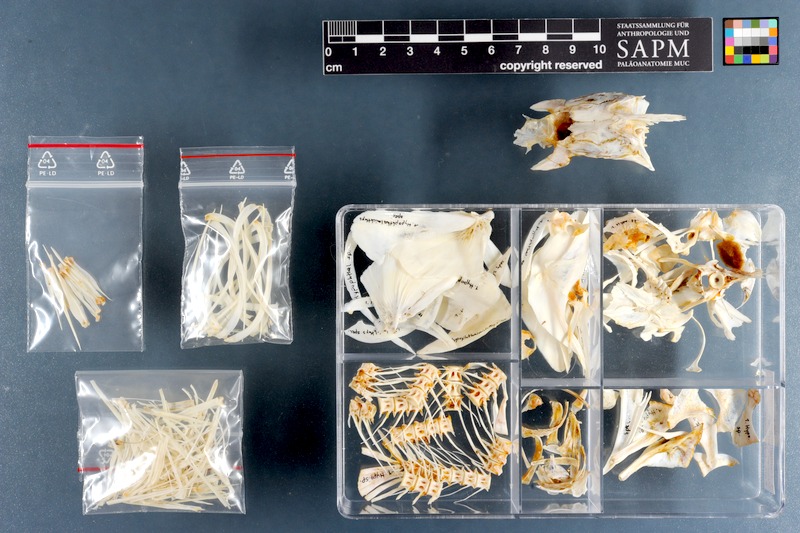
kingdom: Animalia
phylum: Chordata
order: Cypriniformes
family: Cyprinidae
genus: Hypophthalmichthys
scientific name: Hypophthalmichthys
